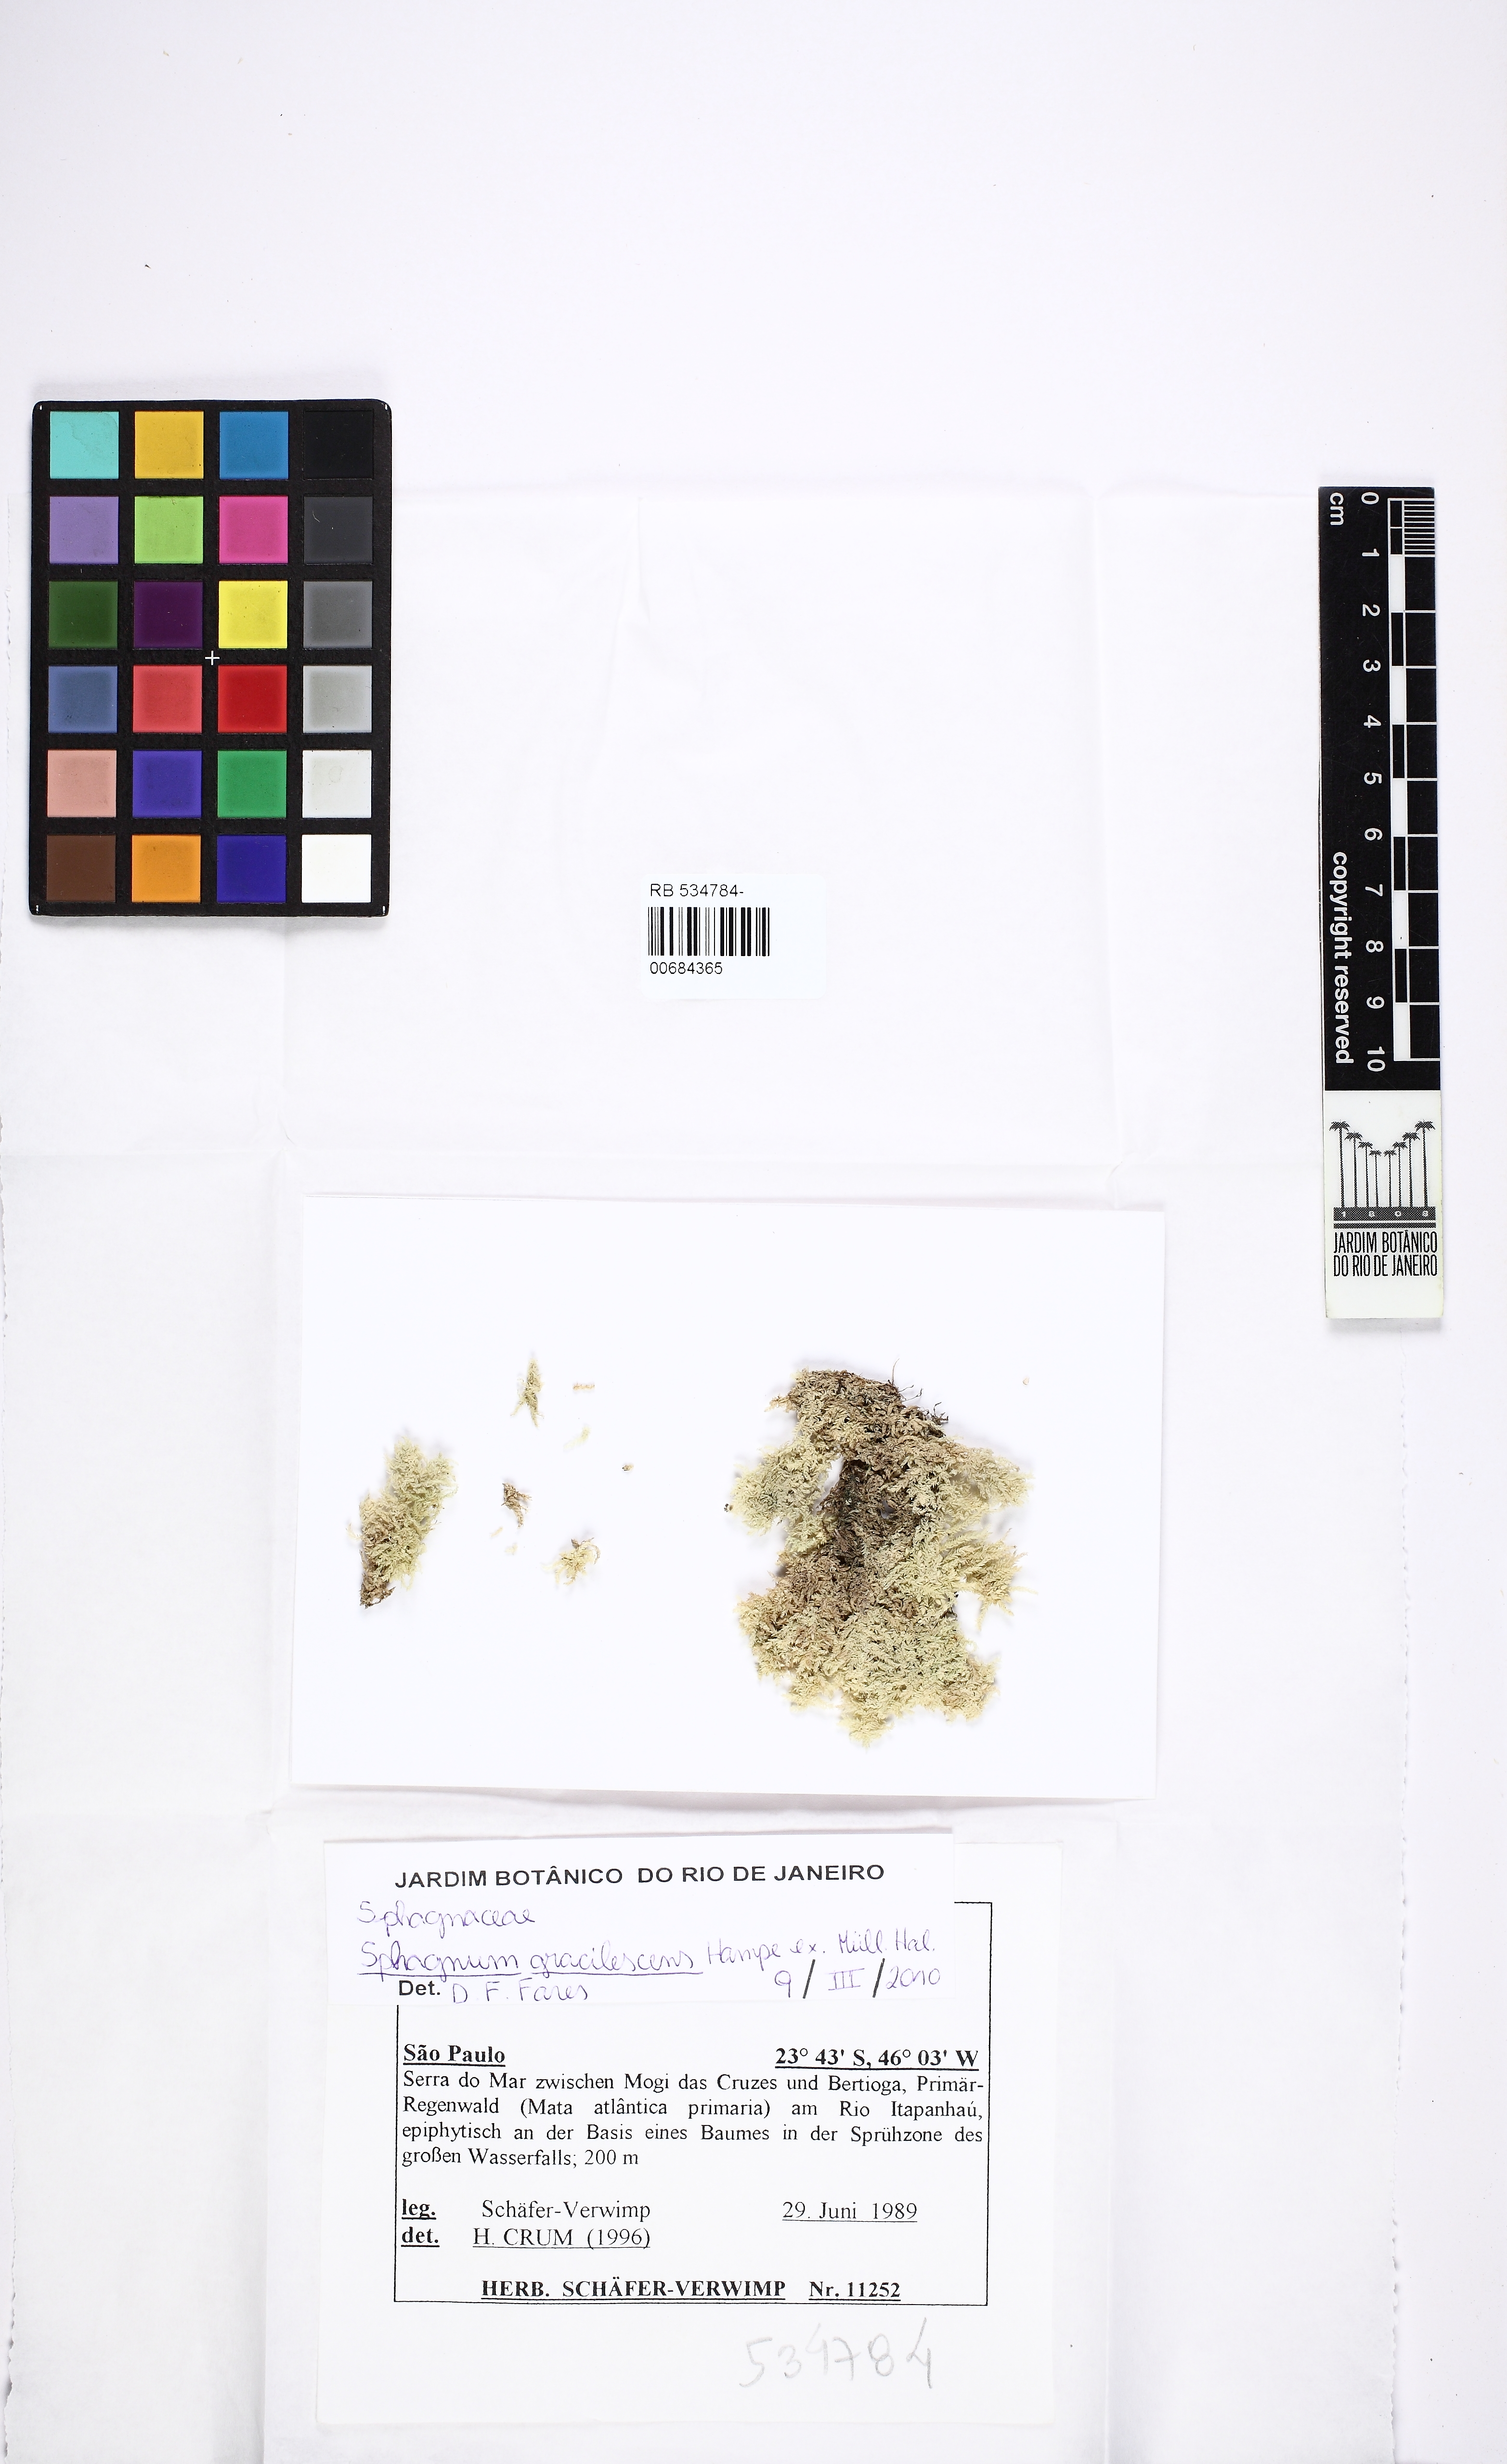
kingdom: Plantae
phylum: Bryophyta
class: Sphagnopsida
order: Sphagnales
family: Sphagnaceae
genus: Sphagnum
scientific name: Sphagnum gracilescens
